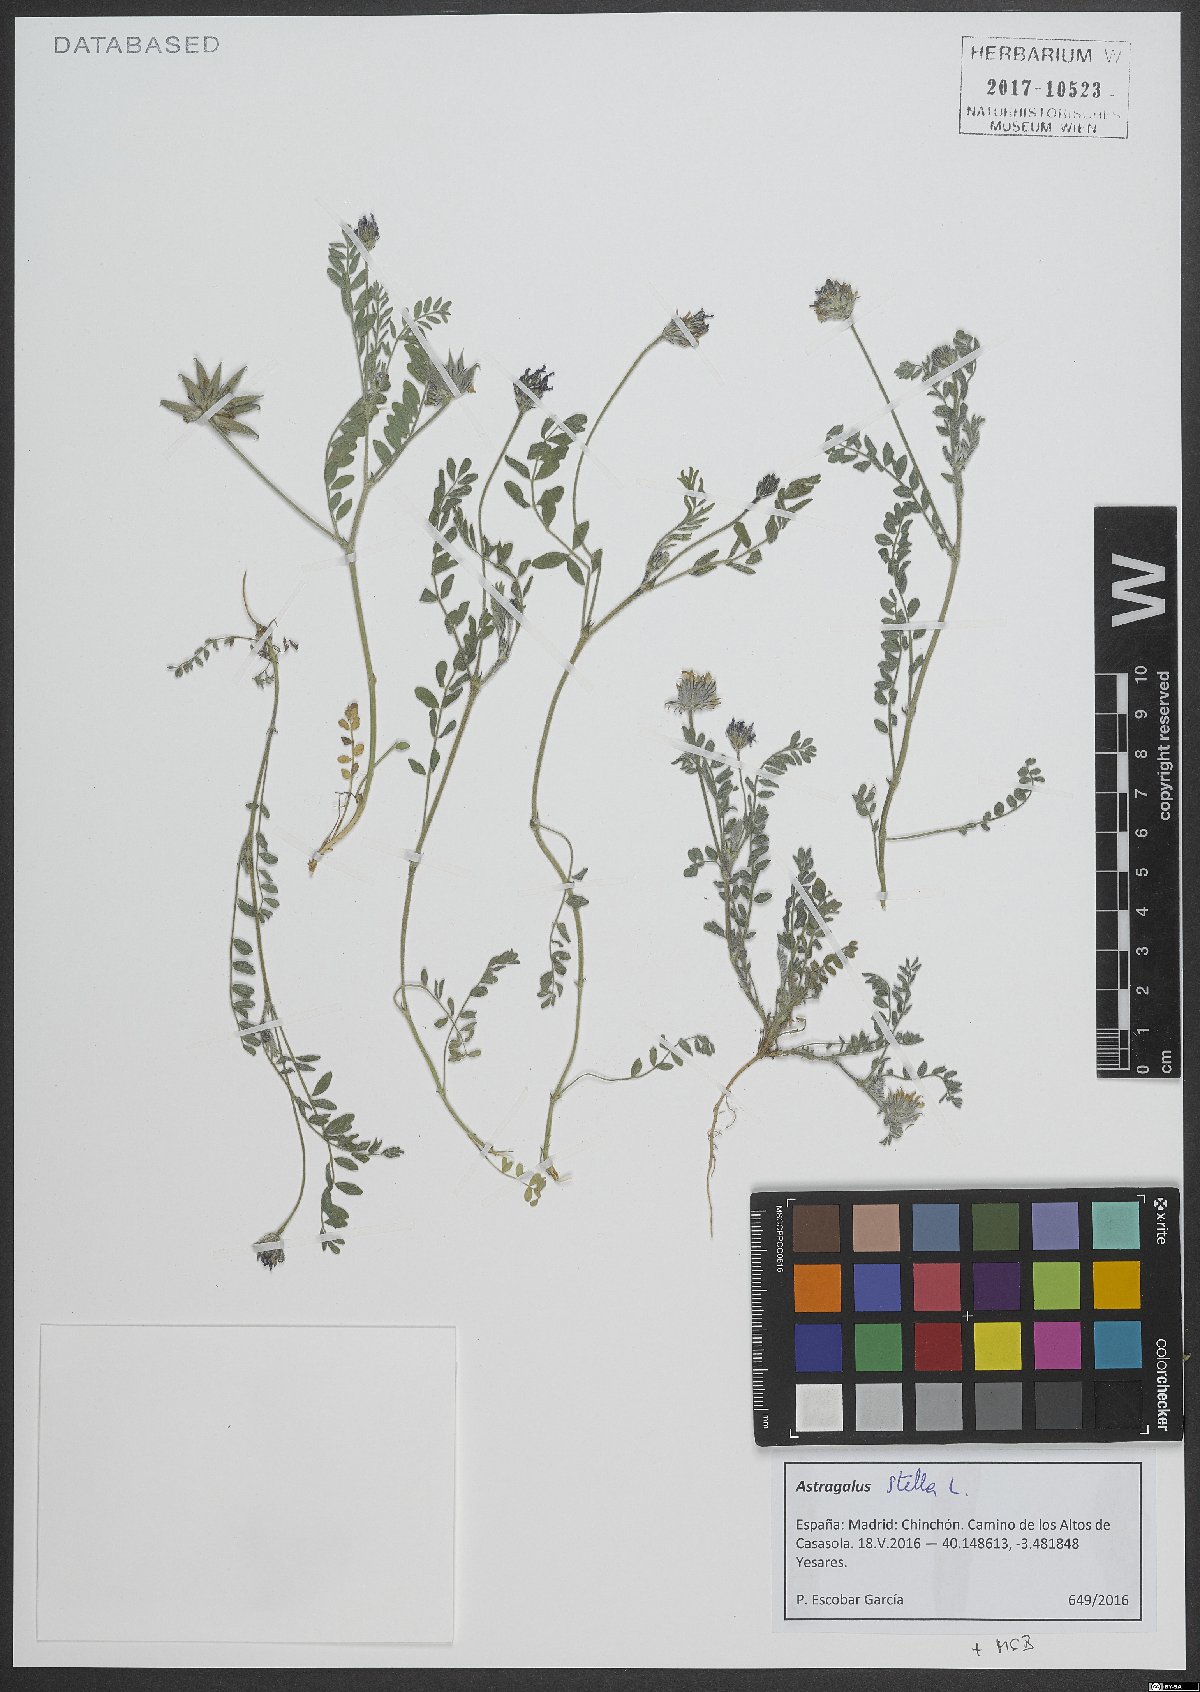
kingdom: Plantae
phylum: Tracheophyta
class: Magnoliopsida
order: Fabales
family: Fabaceae
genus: Astragalus
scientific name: Astragalus stella
